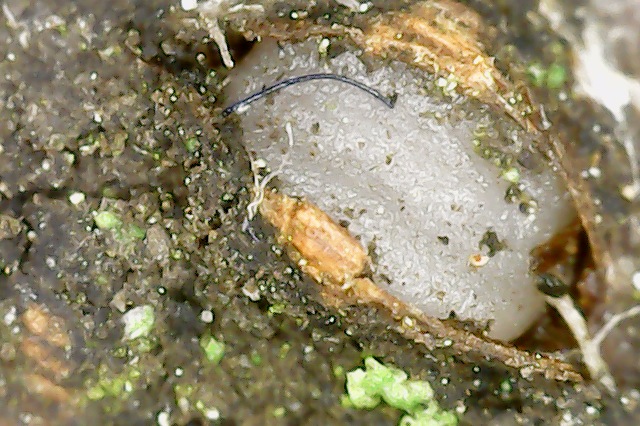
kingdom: Fungi
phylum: Basidiomycota
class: Pucciniomycetes
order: Platygloeales
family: Platygloeaceae
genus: Platygloea
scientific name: Platygloea disciformis
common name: linde-slimklat
